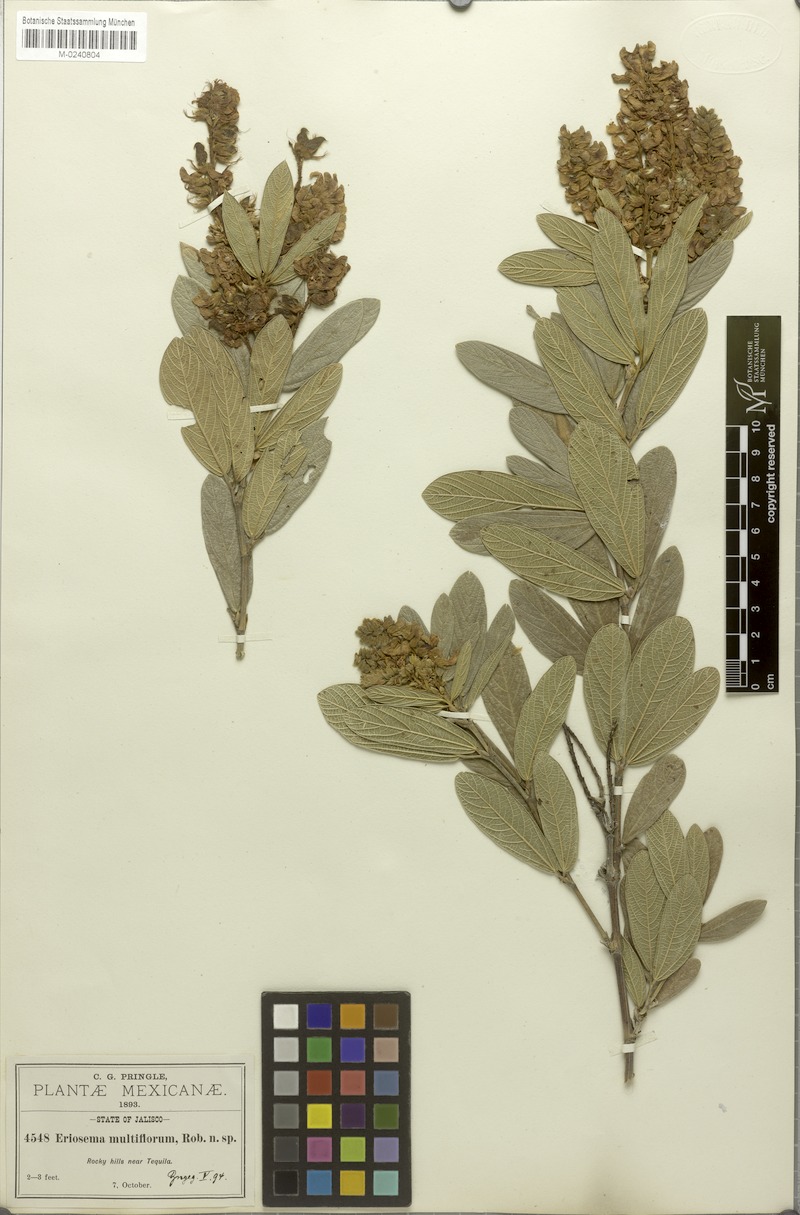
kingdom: Plantae
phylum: Tracheophyta
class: Magnoliopsida
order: Fabales
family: Fabaceae
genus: Eriosema
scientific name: Eriosema multiflorum
